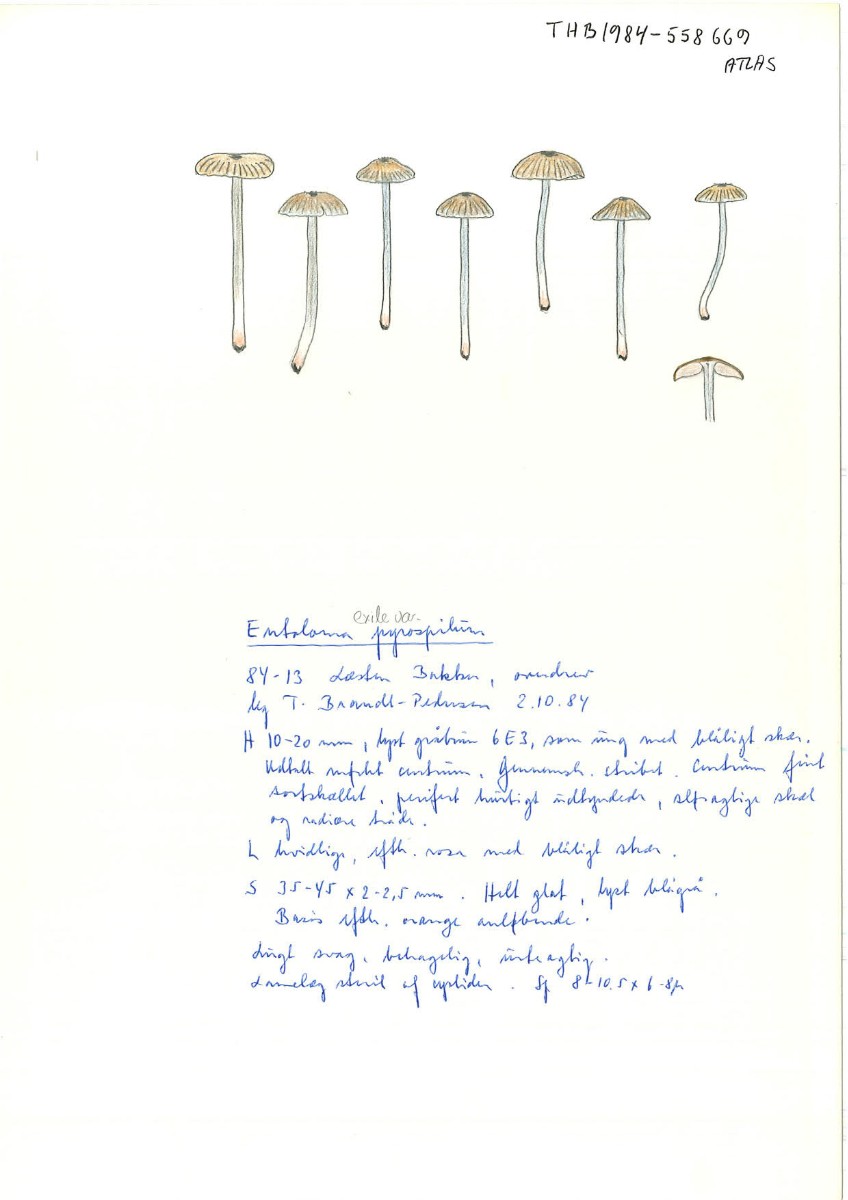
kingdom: Fungi
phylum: Basidiomycota
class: Agaricomycetes
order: Agaricales
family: Entolomataceae
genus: Entoloma
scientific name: Entoloma exile
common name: rødplettet rødblad
